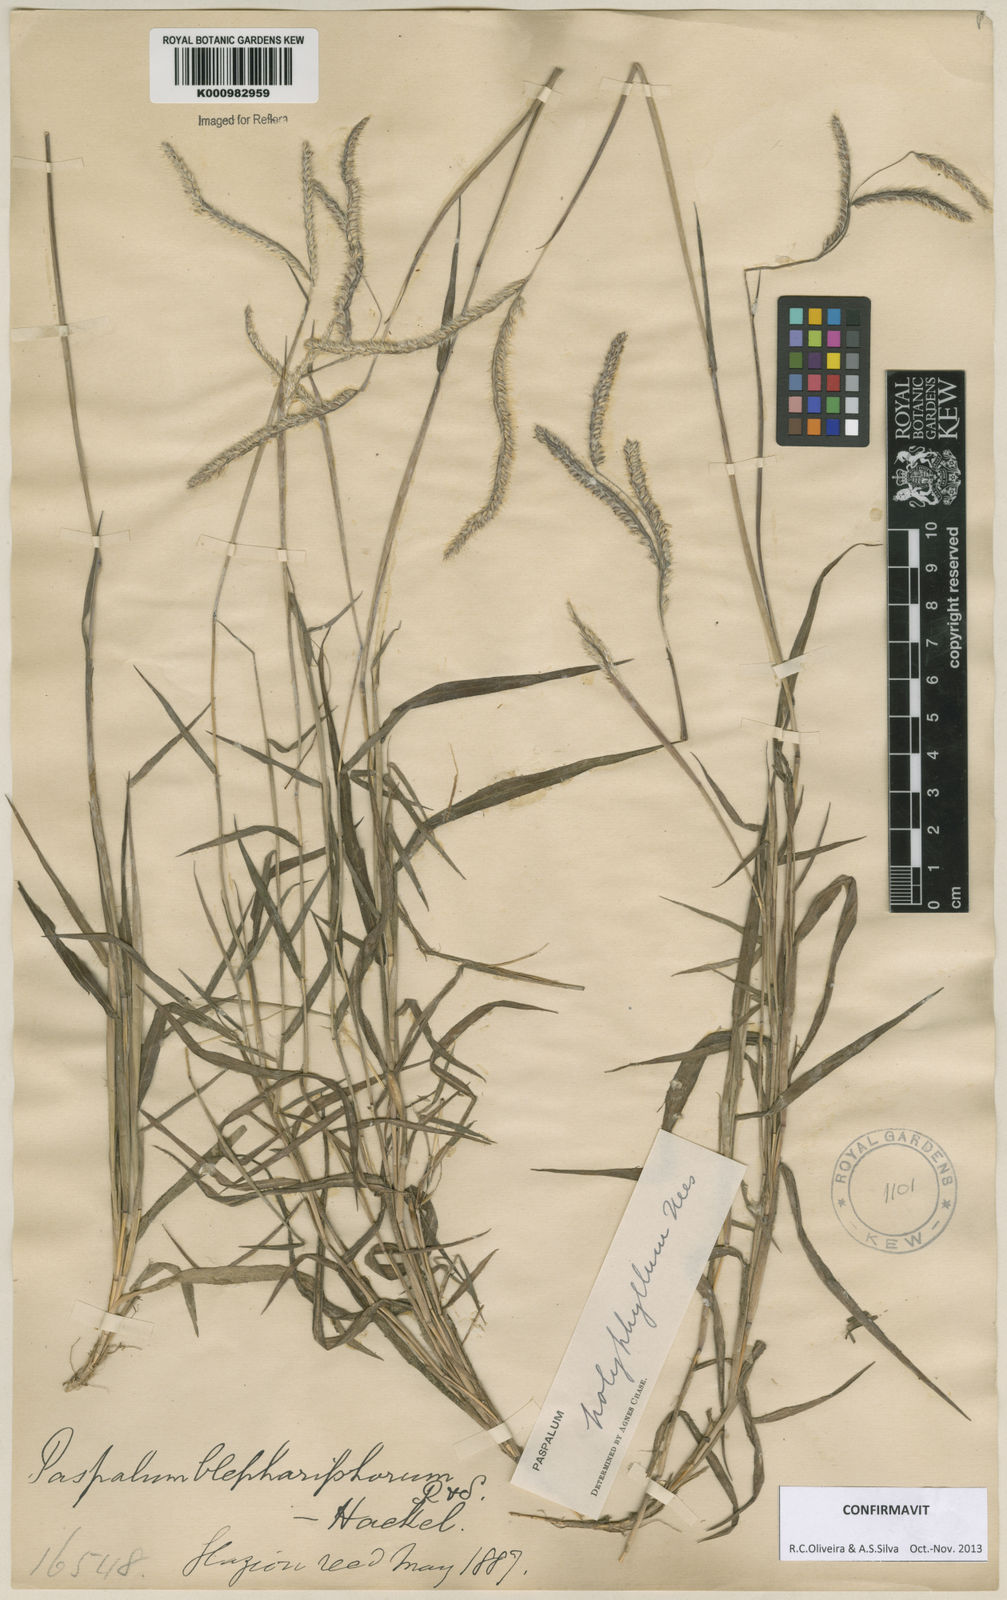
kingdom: Plantae
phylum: Tracheophyta
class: Liliopsida
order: Poales
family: Poaceae
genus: Paspalum
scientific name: Paspalum
